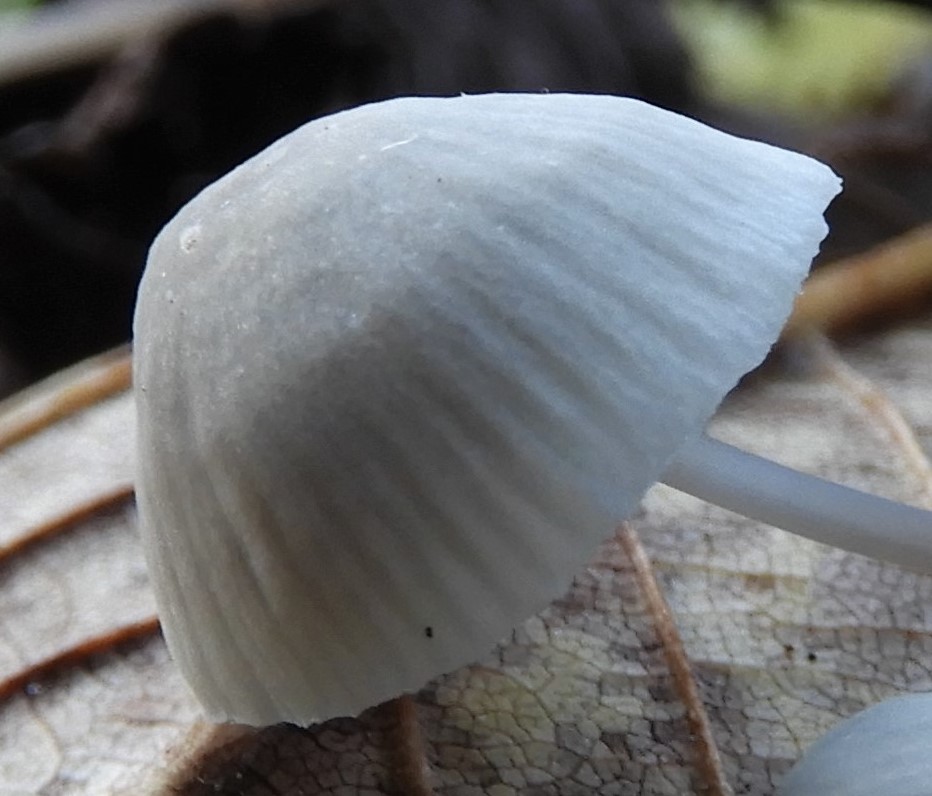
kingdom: Fungi
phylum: Basidiomycota
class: Agaricomycetes
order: Agaricales
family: Mycenaceae
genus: Mycena
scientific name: Mycena
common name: huesvamp
